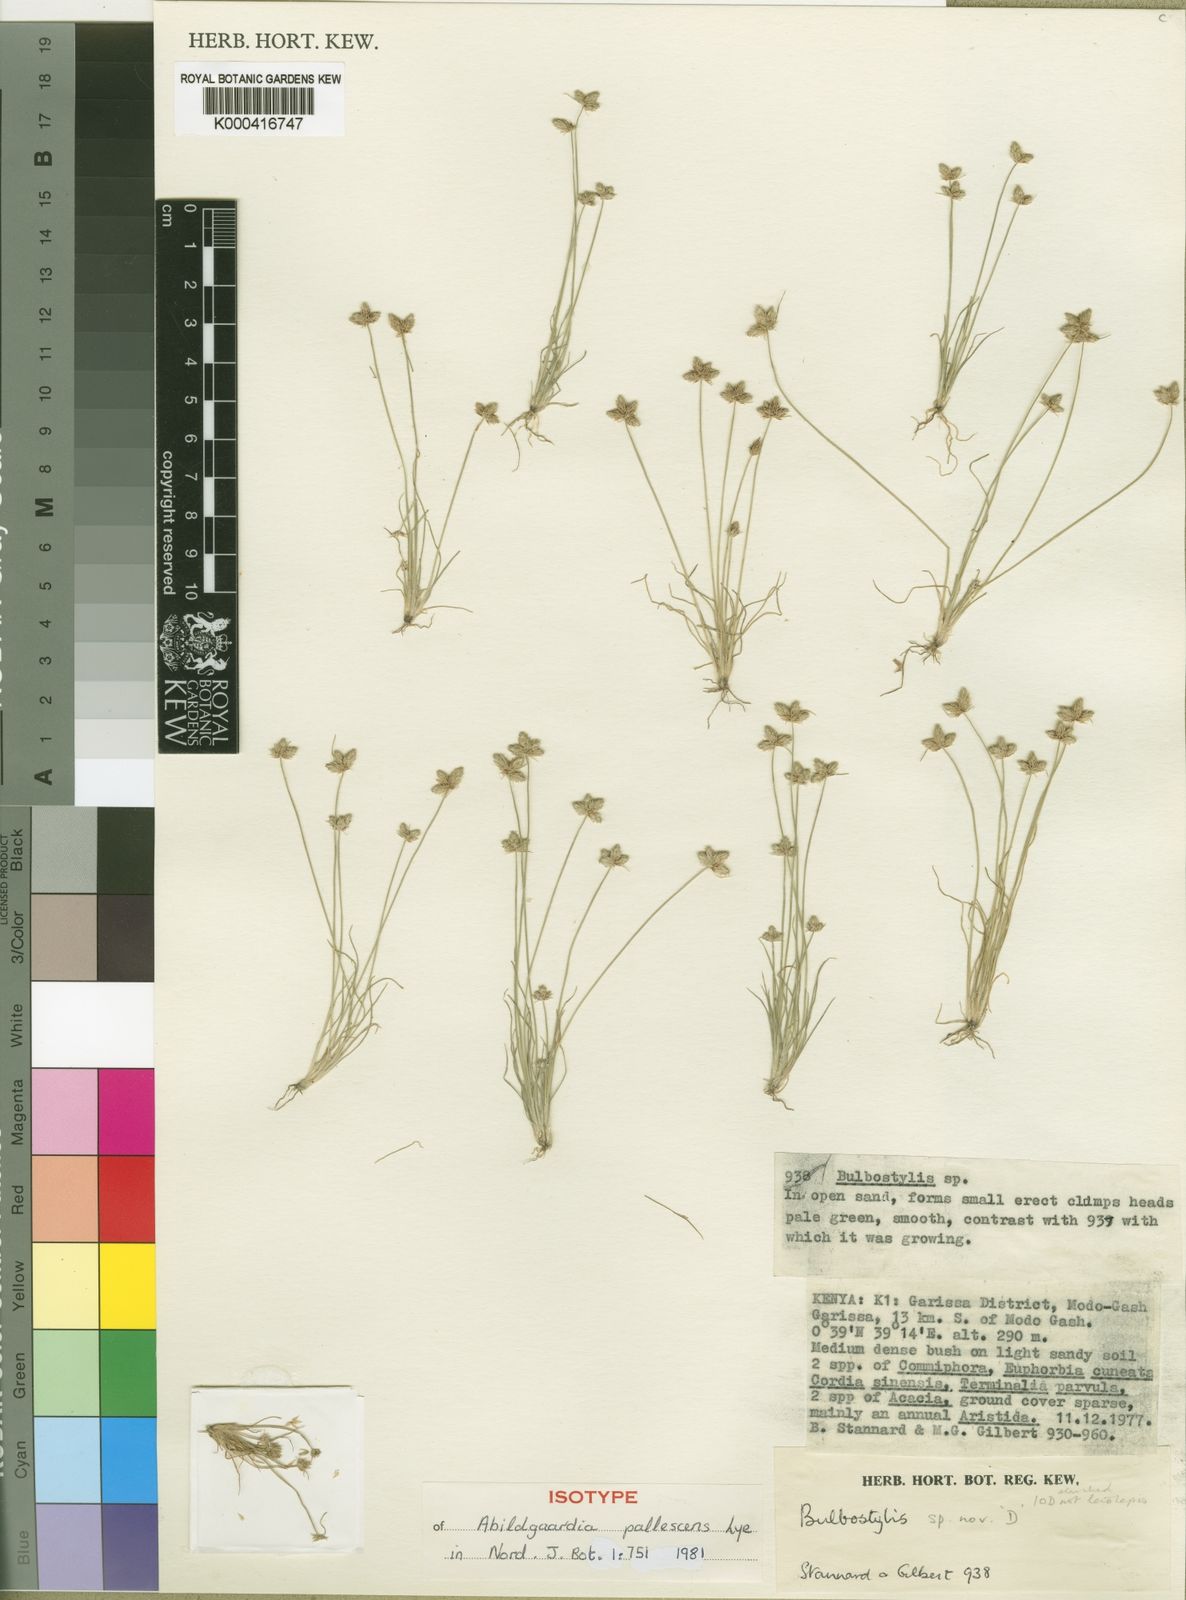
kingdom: Plantae
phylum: Tracheophyta
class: Liliopsida
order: Poales
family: Cyperaceae
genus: Bulbostylis
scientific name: Bulbostylis pallescens
